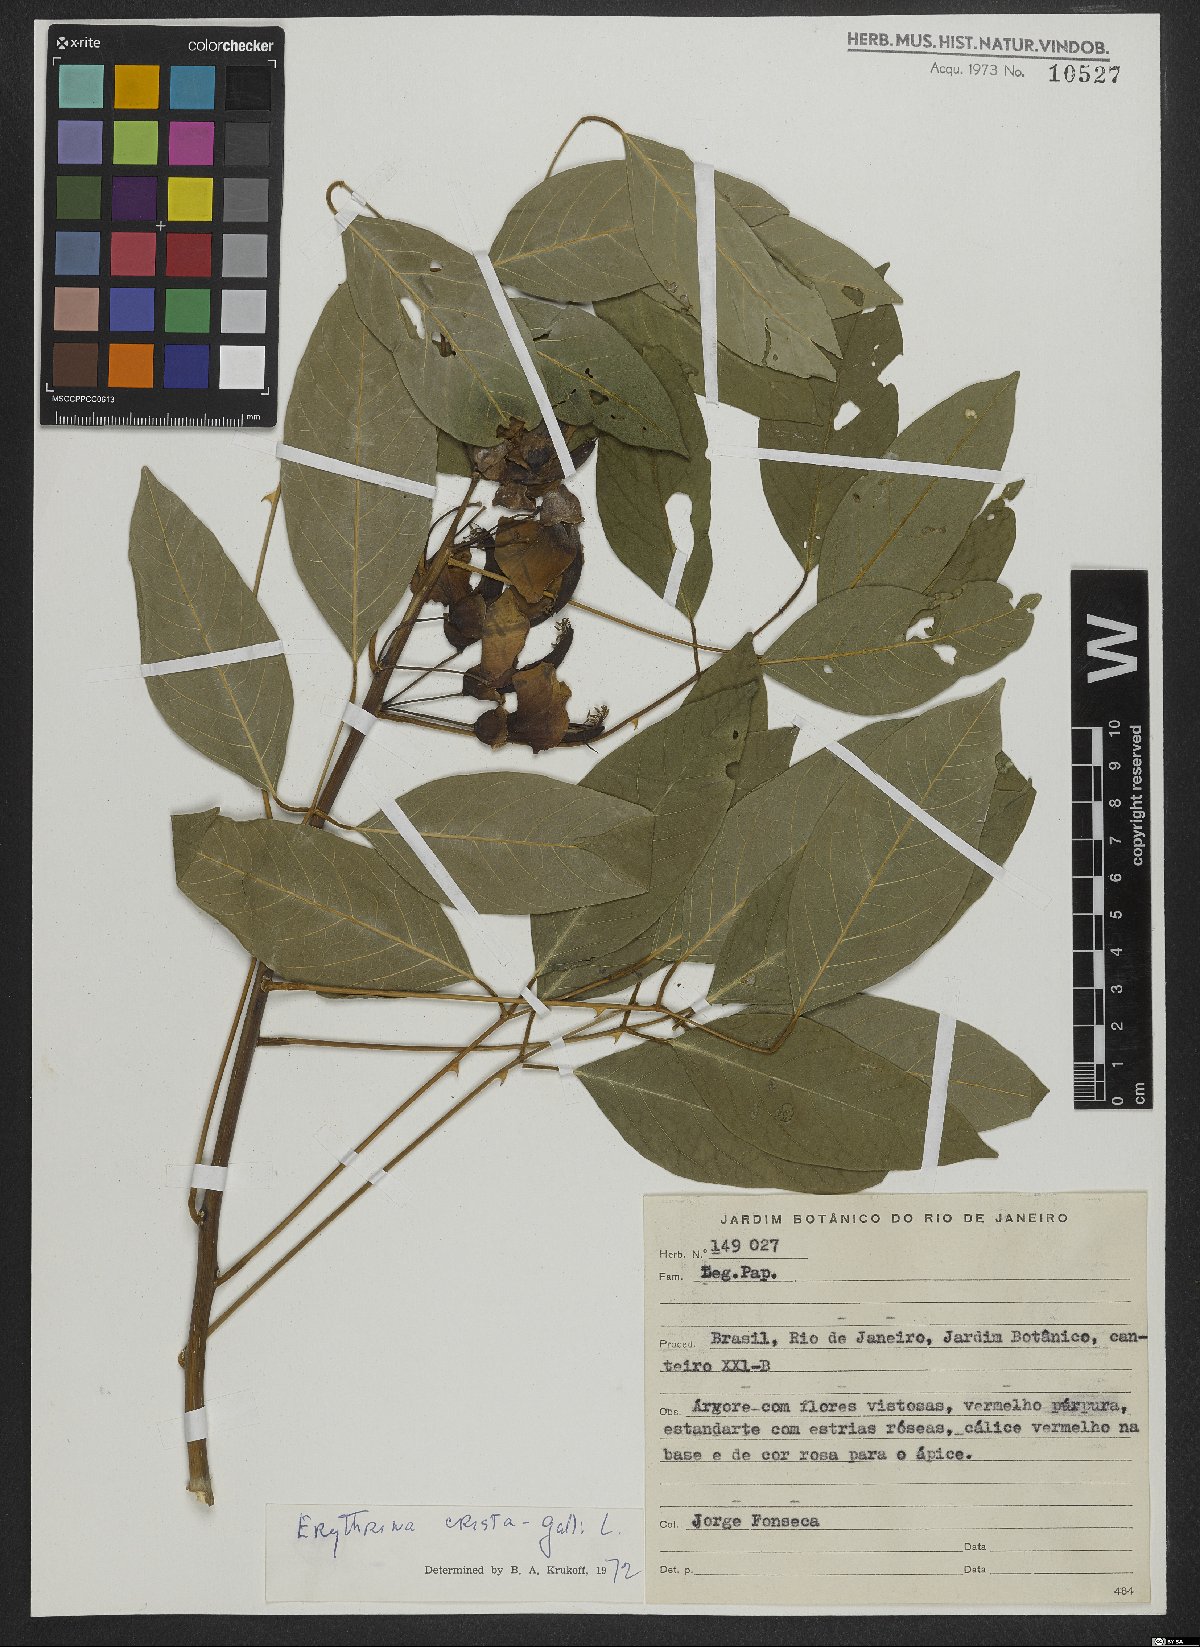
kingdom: Plantae
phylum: Tracheophyta
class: Magnoliopsida
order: Fabales
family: Fabaceae
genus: Erythrina
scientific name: Erythrina crista-galli
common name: Cockspur coral tree
